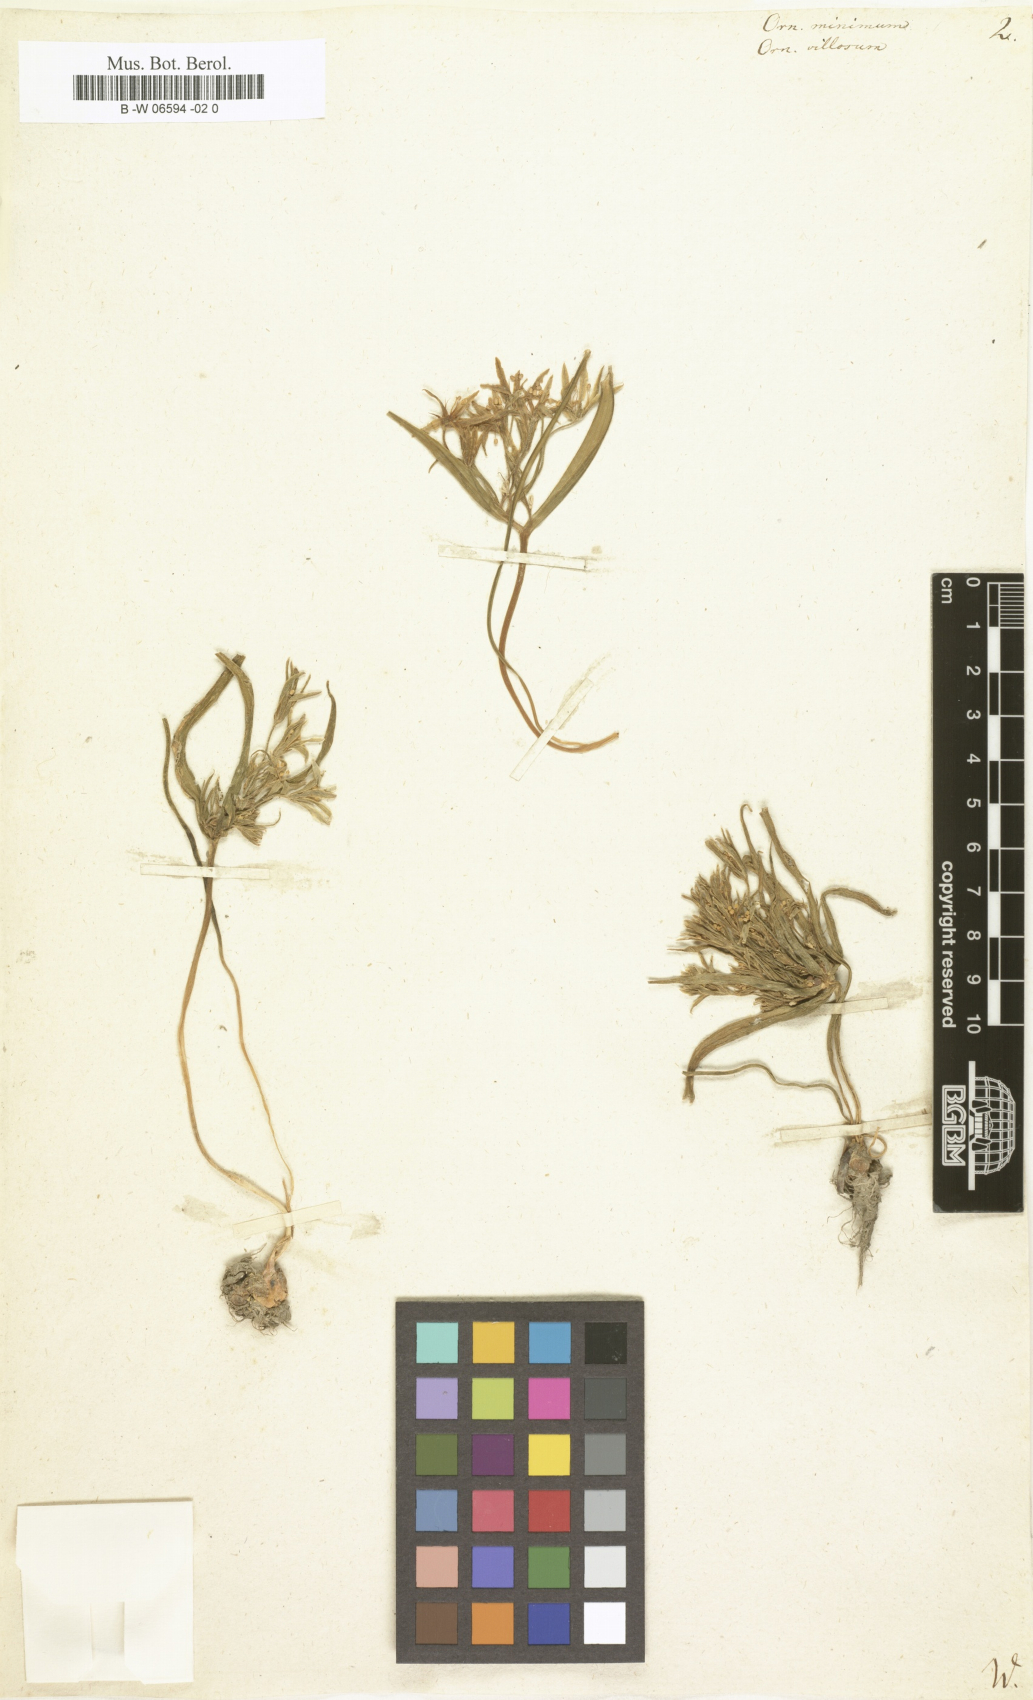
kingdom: Plantae
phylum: Tracheophyta
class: Liliopsida
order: Liliales
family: Liliaceae
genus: Gagea
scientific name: Gagea minima
